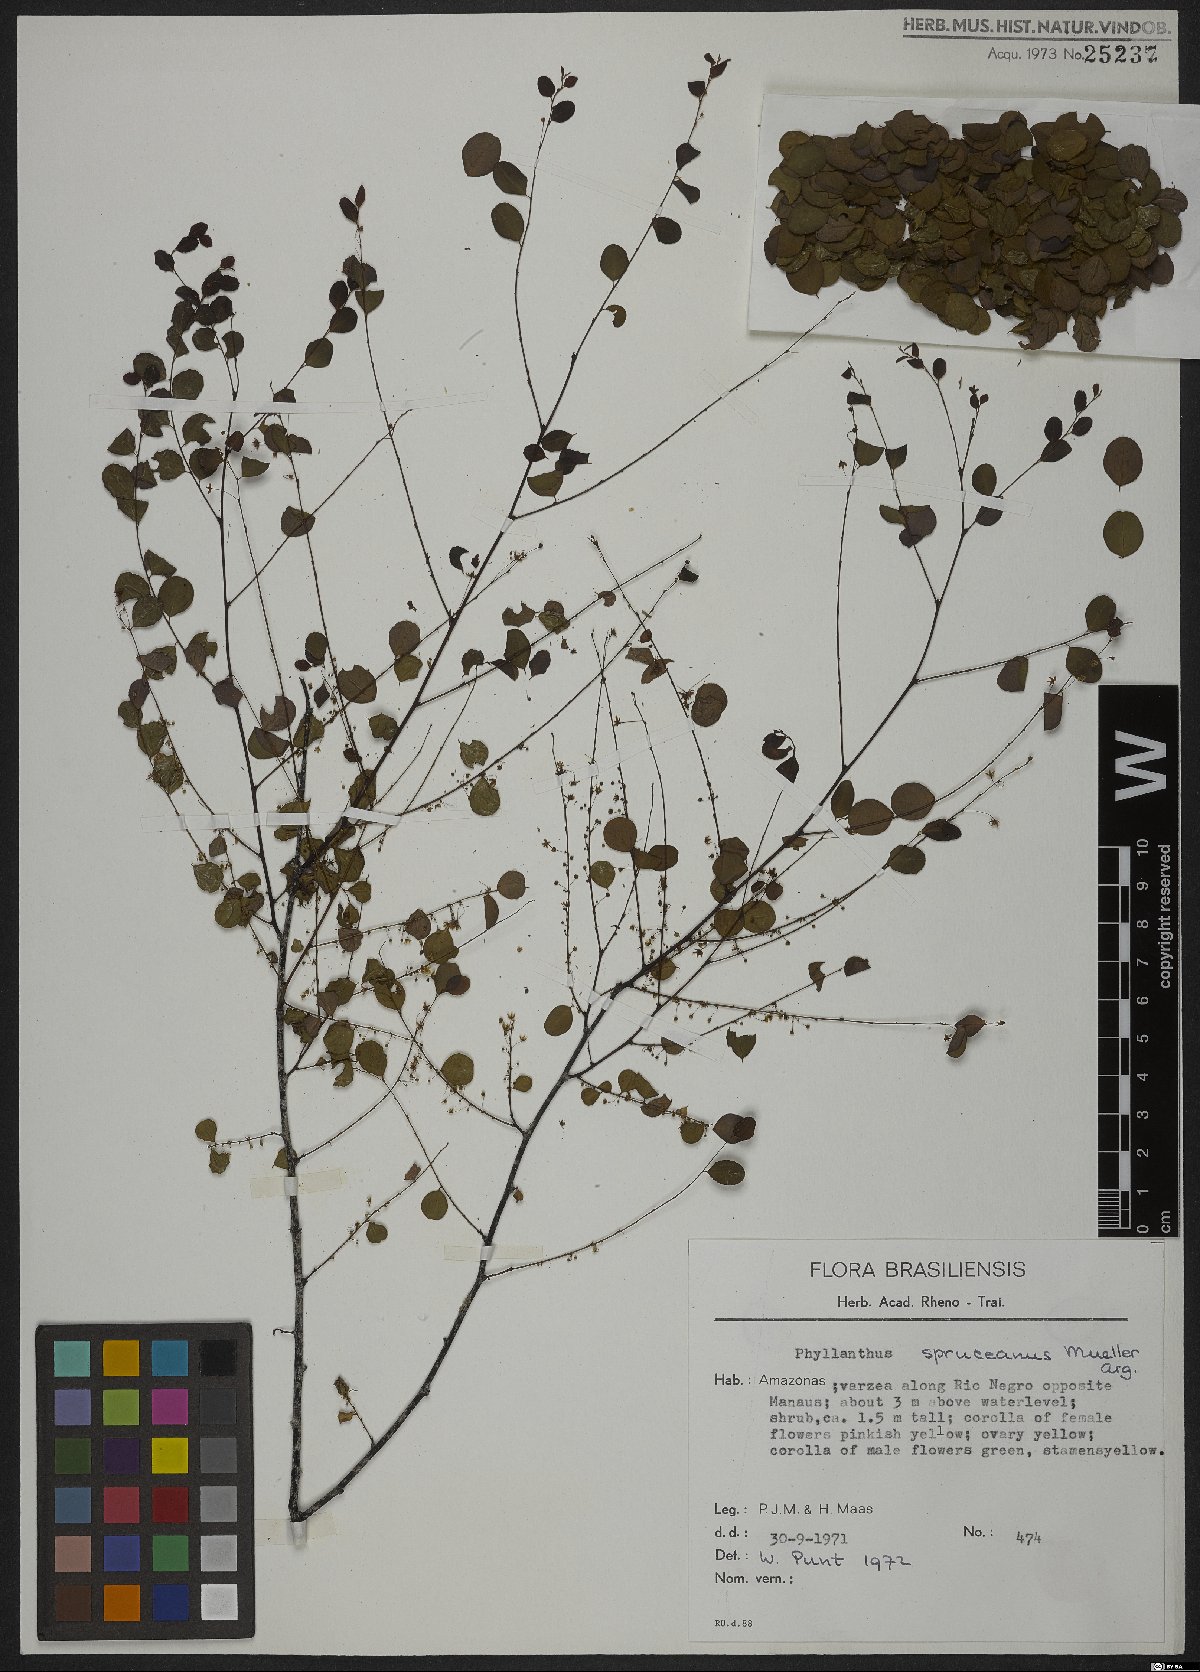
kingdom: Plantae
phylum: Tracheophyta
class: Magnoliopsida
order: Malpighiales
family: Phyllanthaceae
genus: Phyllanthus
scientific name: Phyllanthus spruceanus
